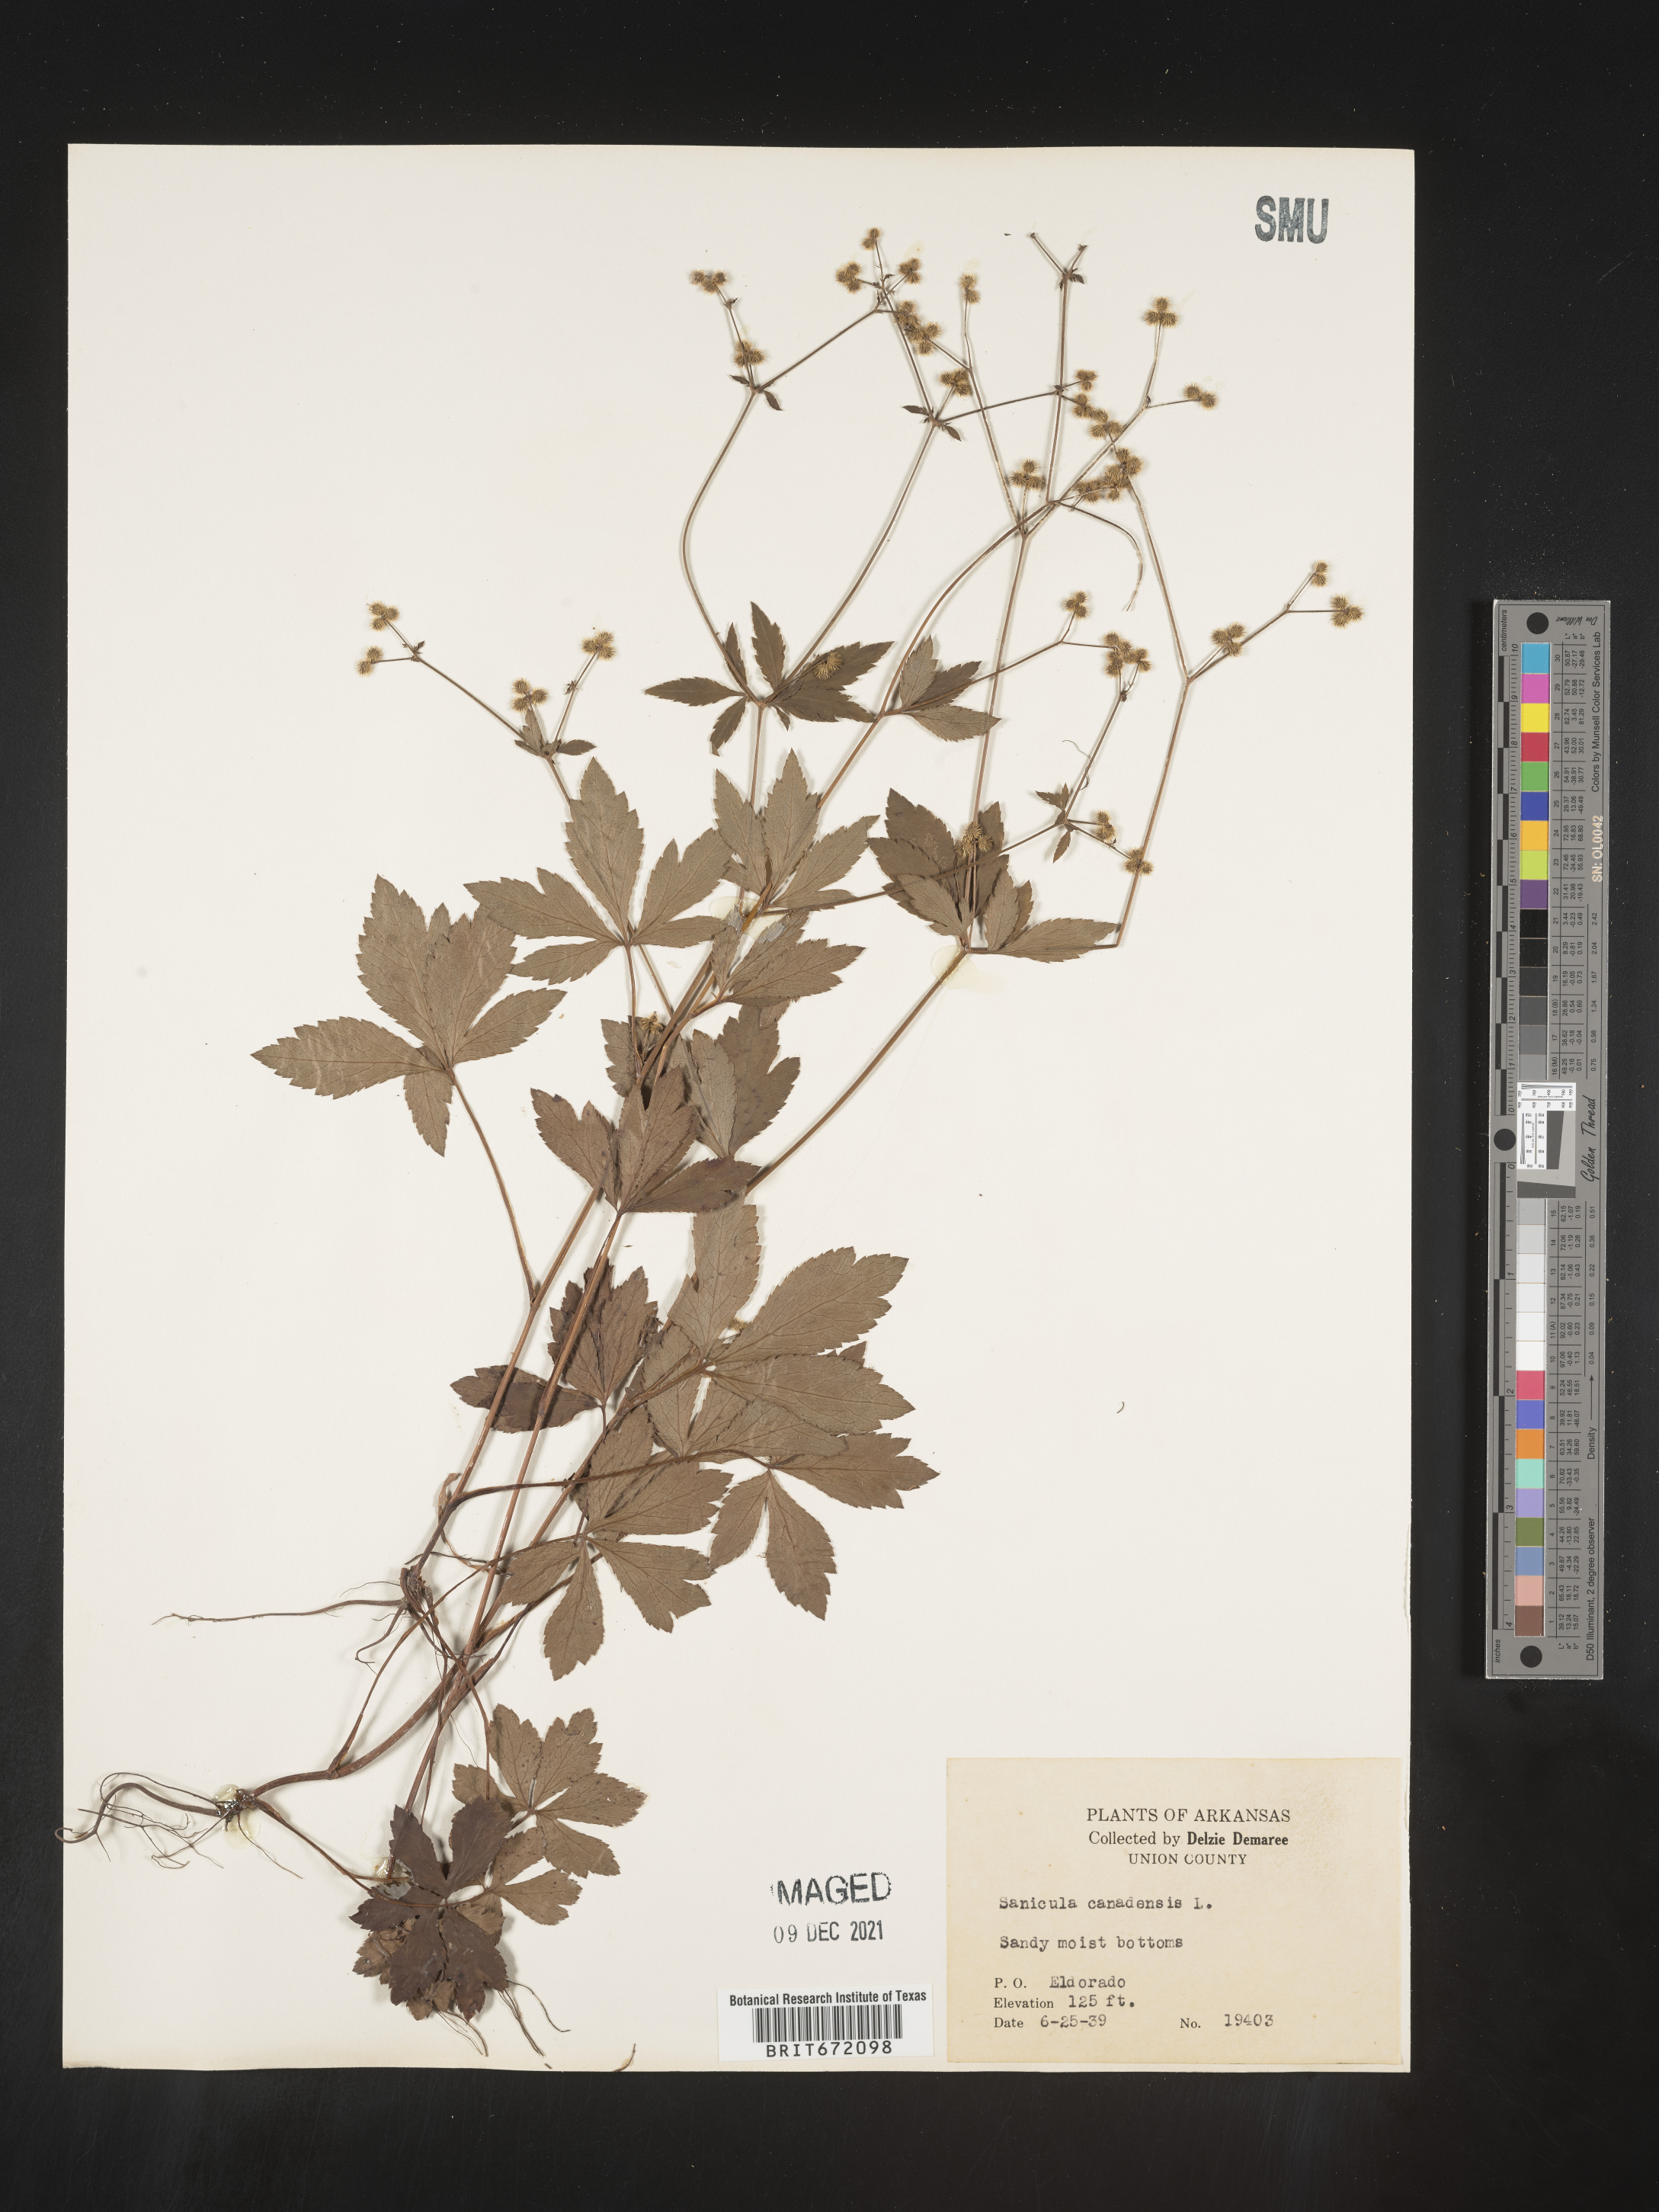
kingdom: Plantae
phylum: Tracheophyta
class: Magnoliopsida
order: Apiales
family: Apiaceae
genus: Sanicula
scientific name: Sanicula canadensis
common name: Canada sanicle
